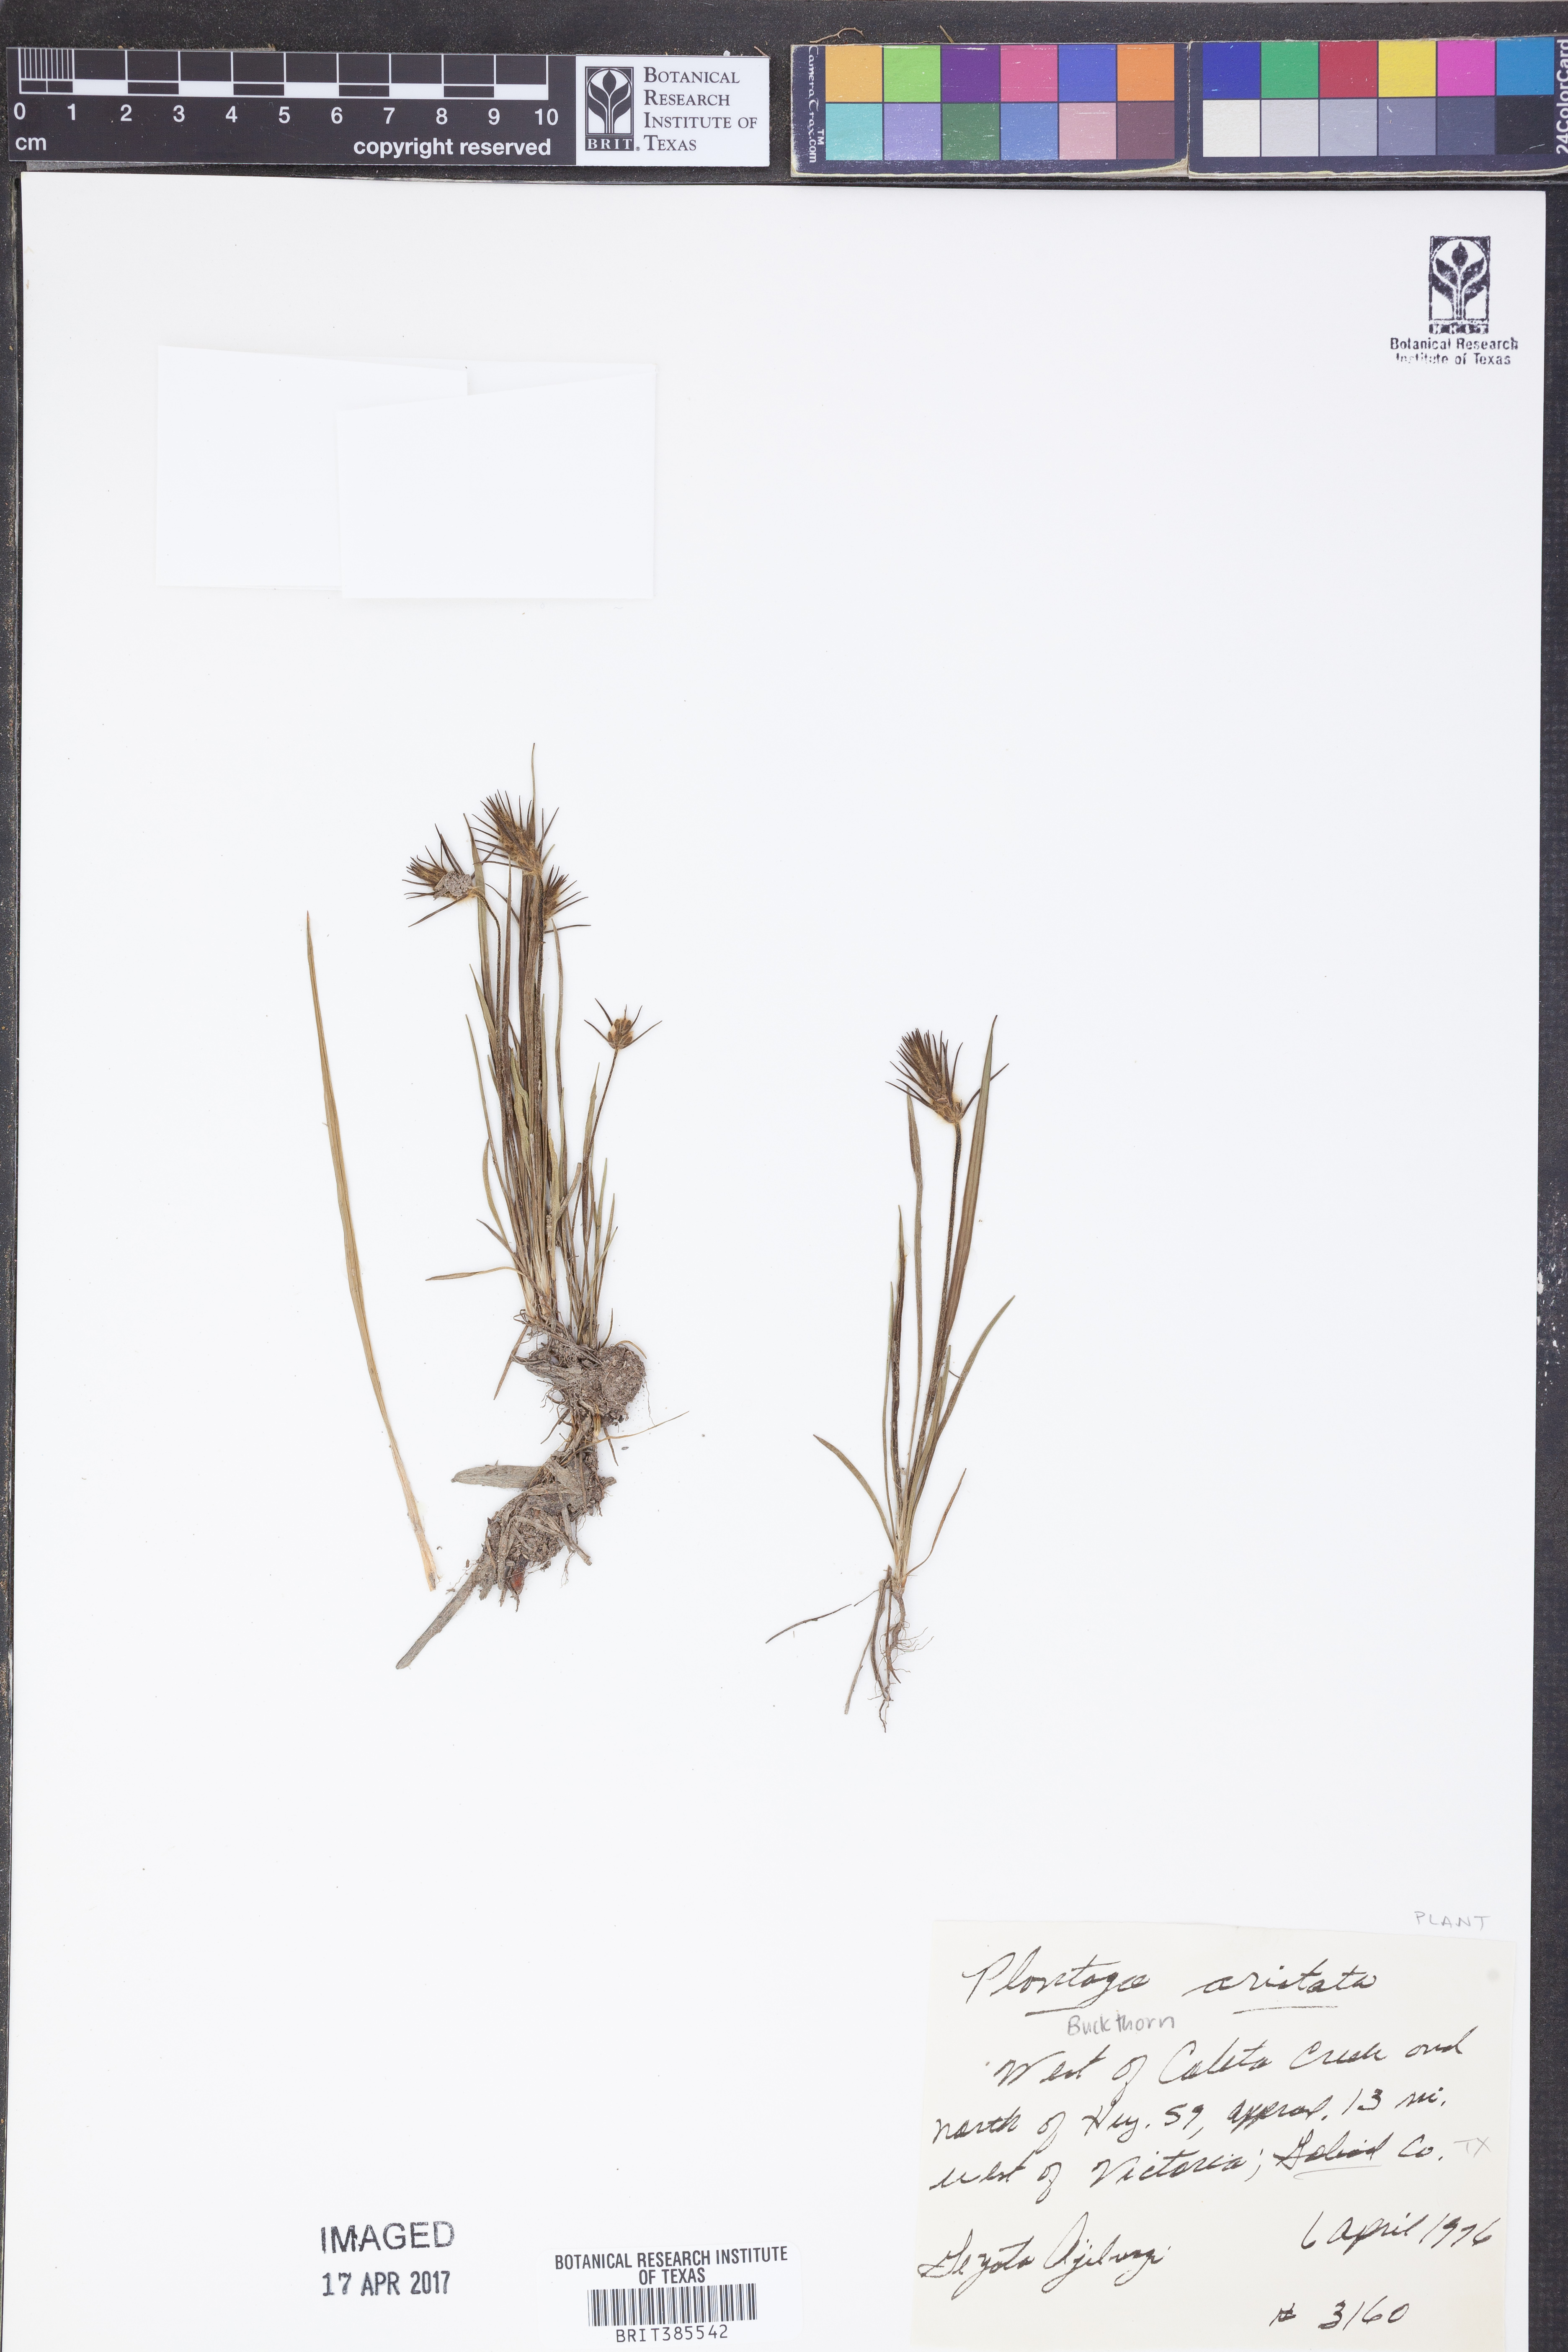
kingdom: Plantae
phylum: Tracheophyta
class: Magnoliopsida
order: Lamiales
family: Plantaginaceae
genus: Plantago
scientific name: Plantago aristata
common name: Bracted plantain
